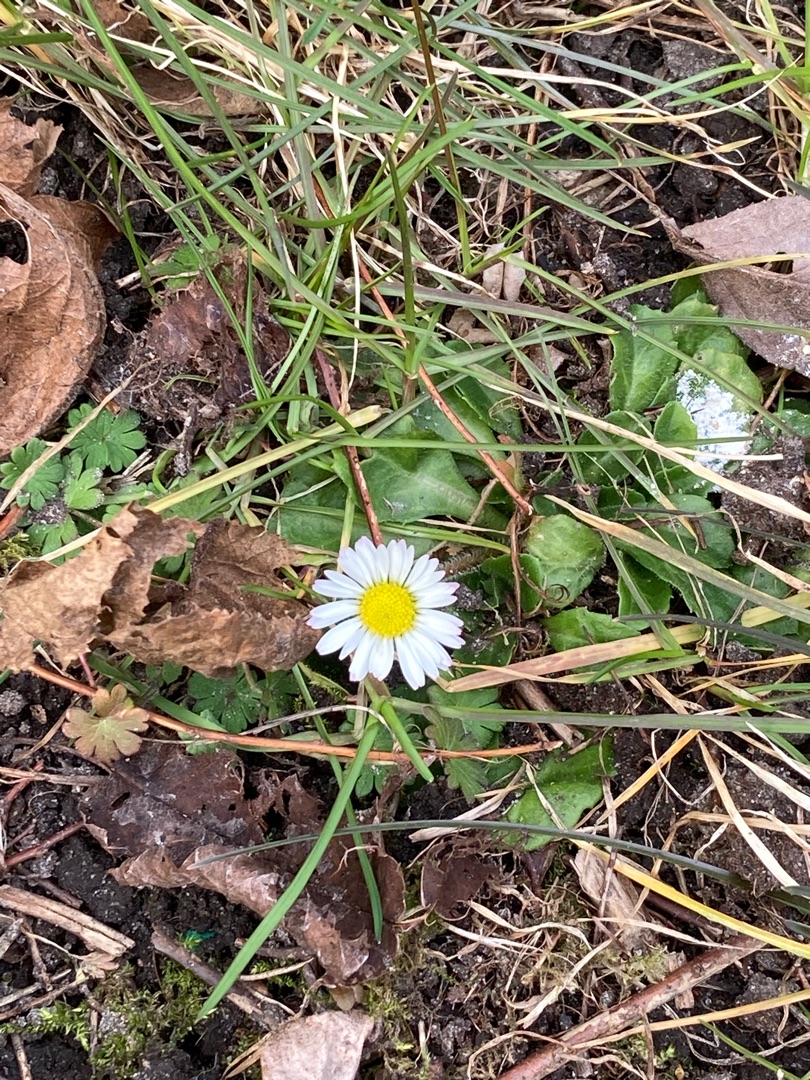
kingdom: Plantae
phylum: Tracheophyta
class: Magnoliopsida
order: Asterales
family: Asteraceae
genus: Bellis
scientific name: Bellis perennis
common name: Tusindfryd
